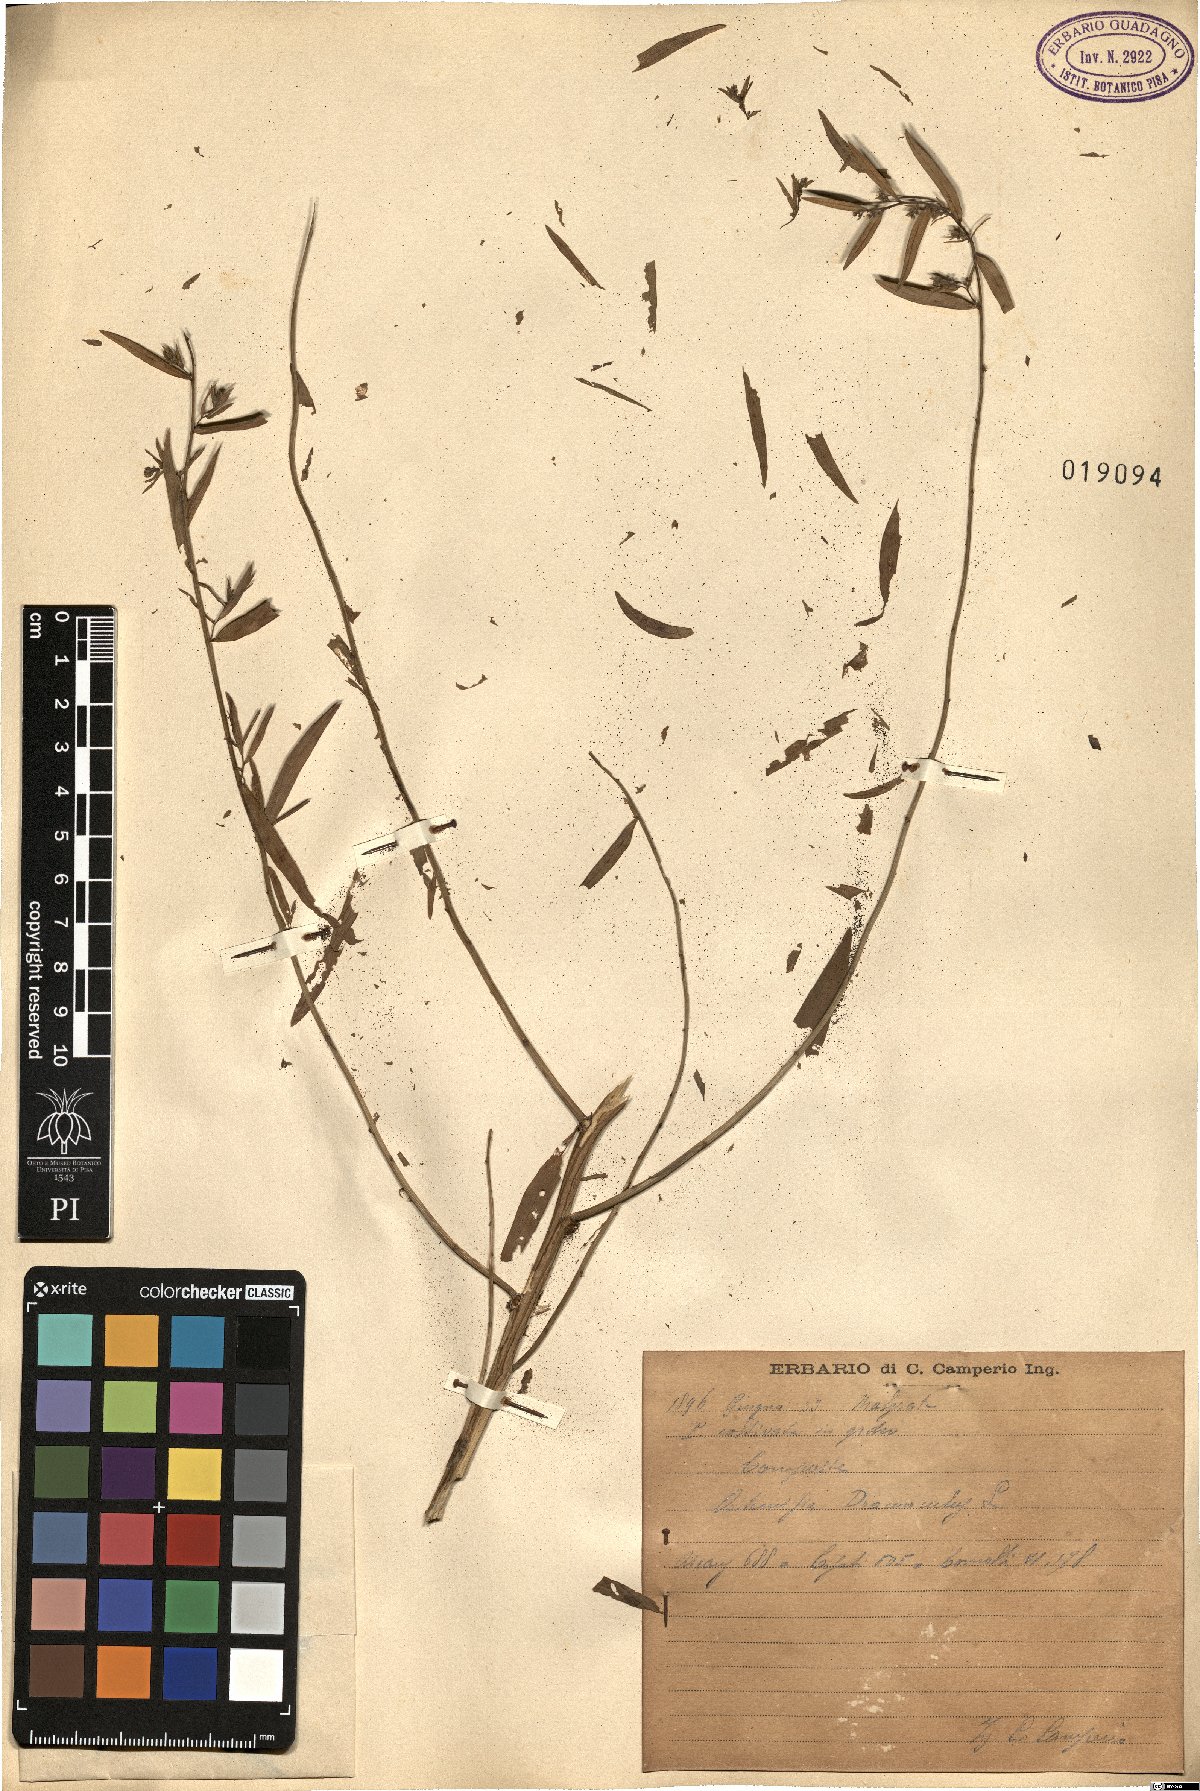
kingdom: Plantae
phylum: Tracheophyta
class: Magnoliopsida
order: Asterales
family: Asteraceae
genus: Artemisia
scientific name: Artemisia dracunculus
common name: Tarragon
